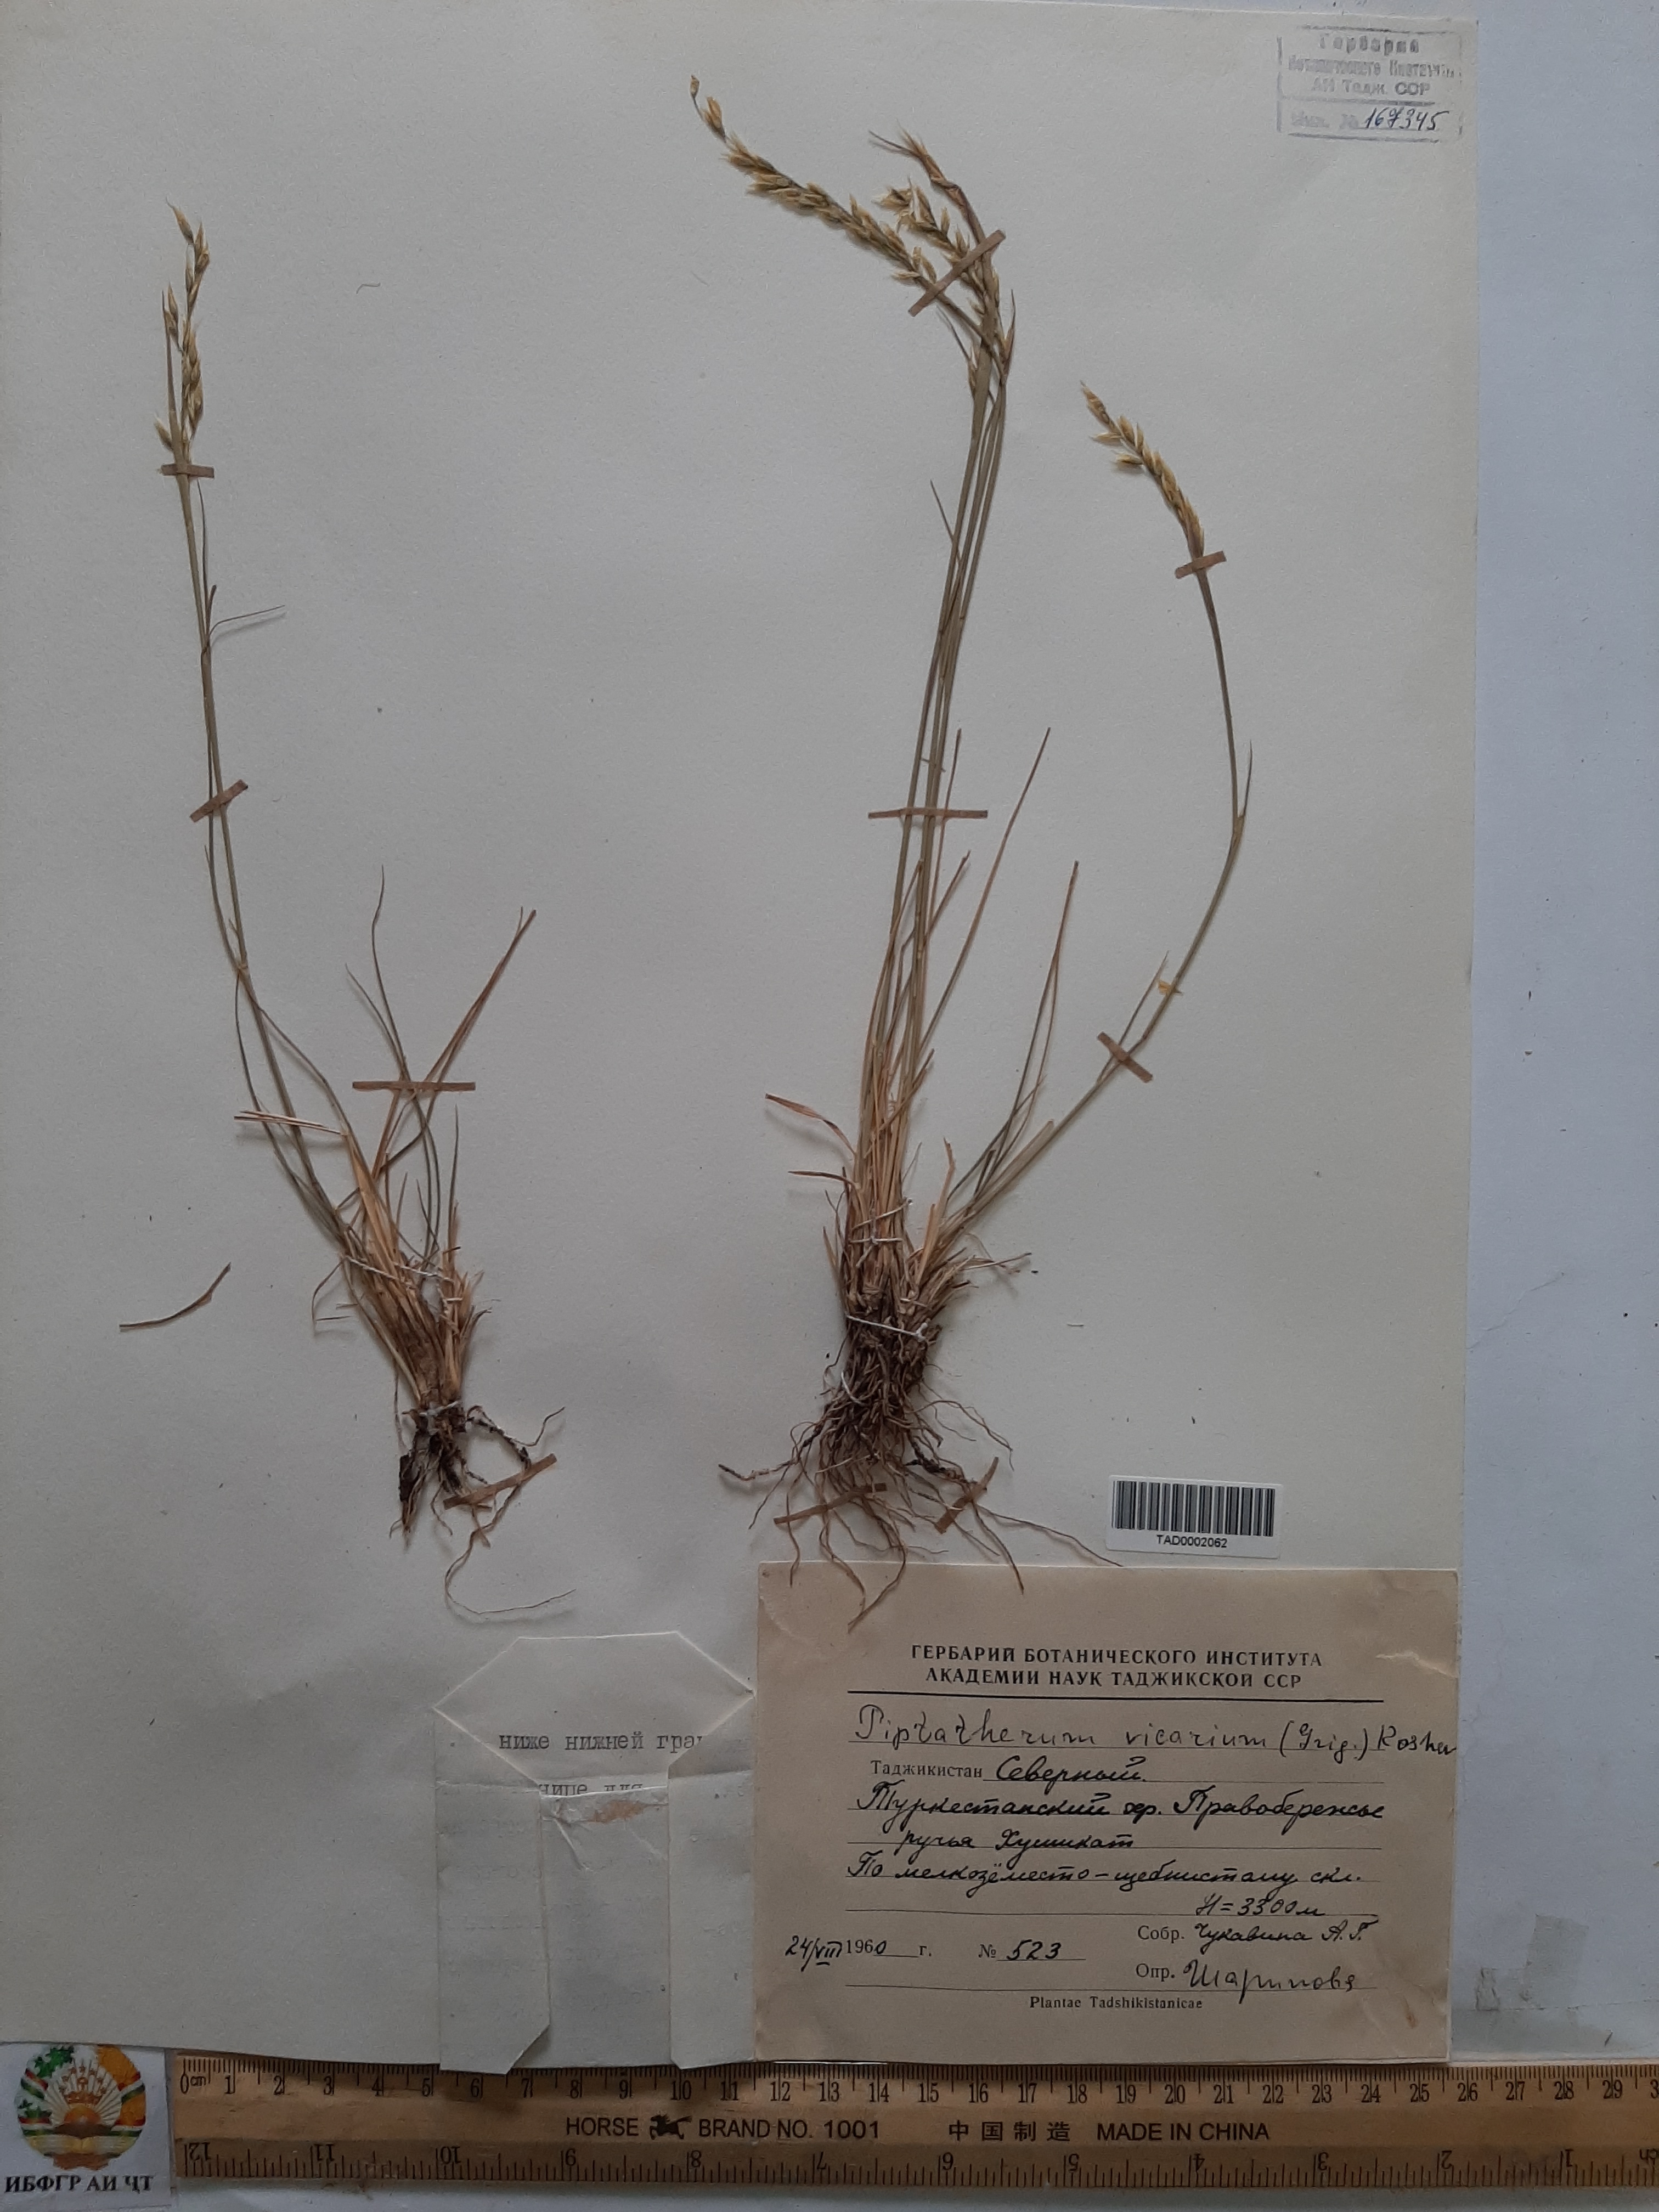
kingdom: Plantae
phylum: Tracheophyta
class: Liliopsida
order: Poales
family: Poaceae
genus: Piptatherum
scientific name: Piptatherum sogdianum
